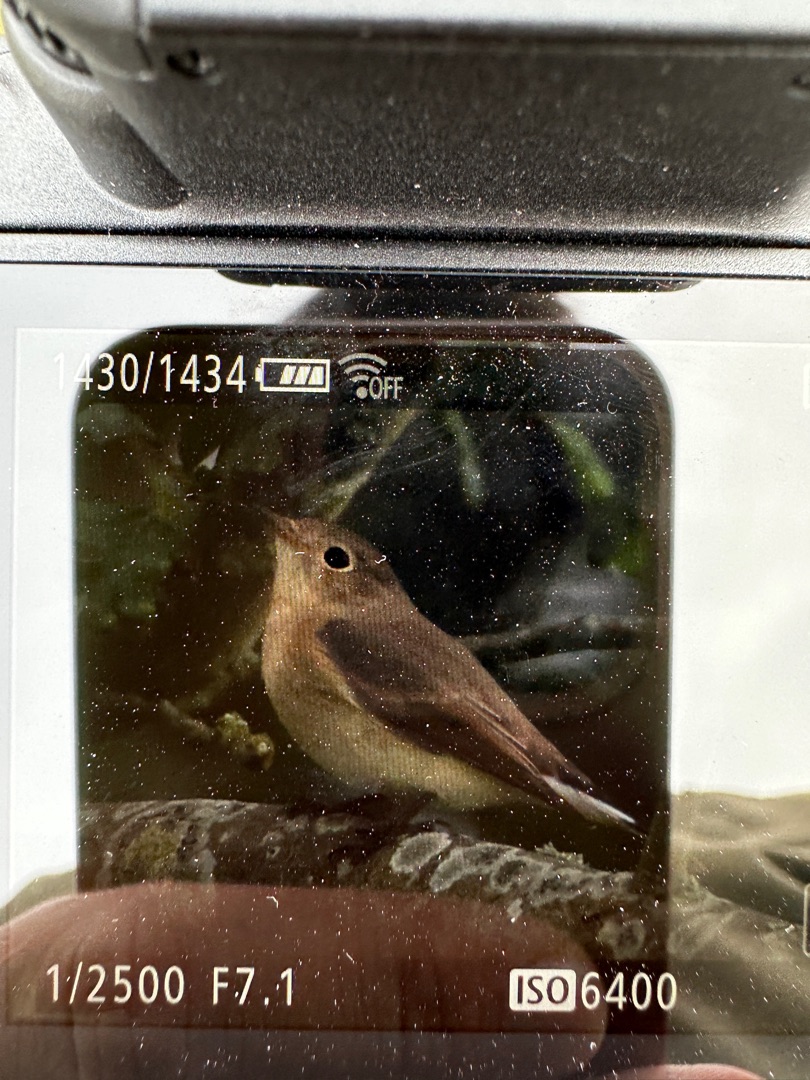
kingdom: Animalia
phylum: Chordata
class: Aves
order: Passeriformes
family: Muscicapidae
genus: Ficedula
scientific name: Ficedula parva
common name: Lille fluesnapper
